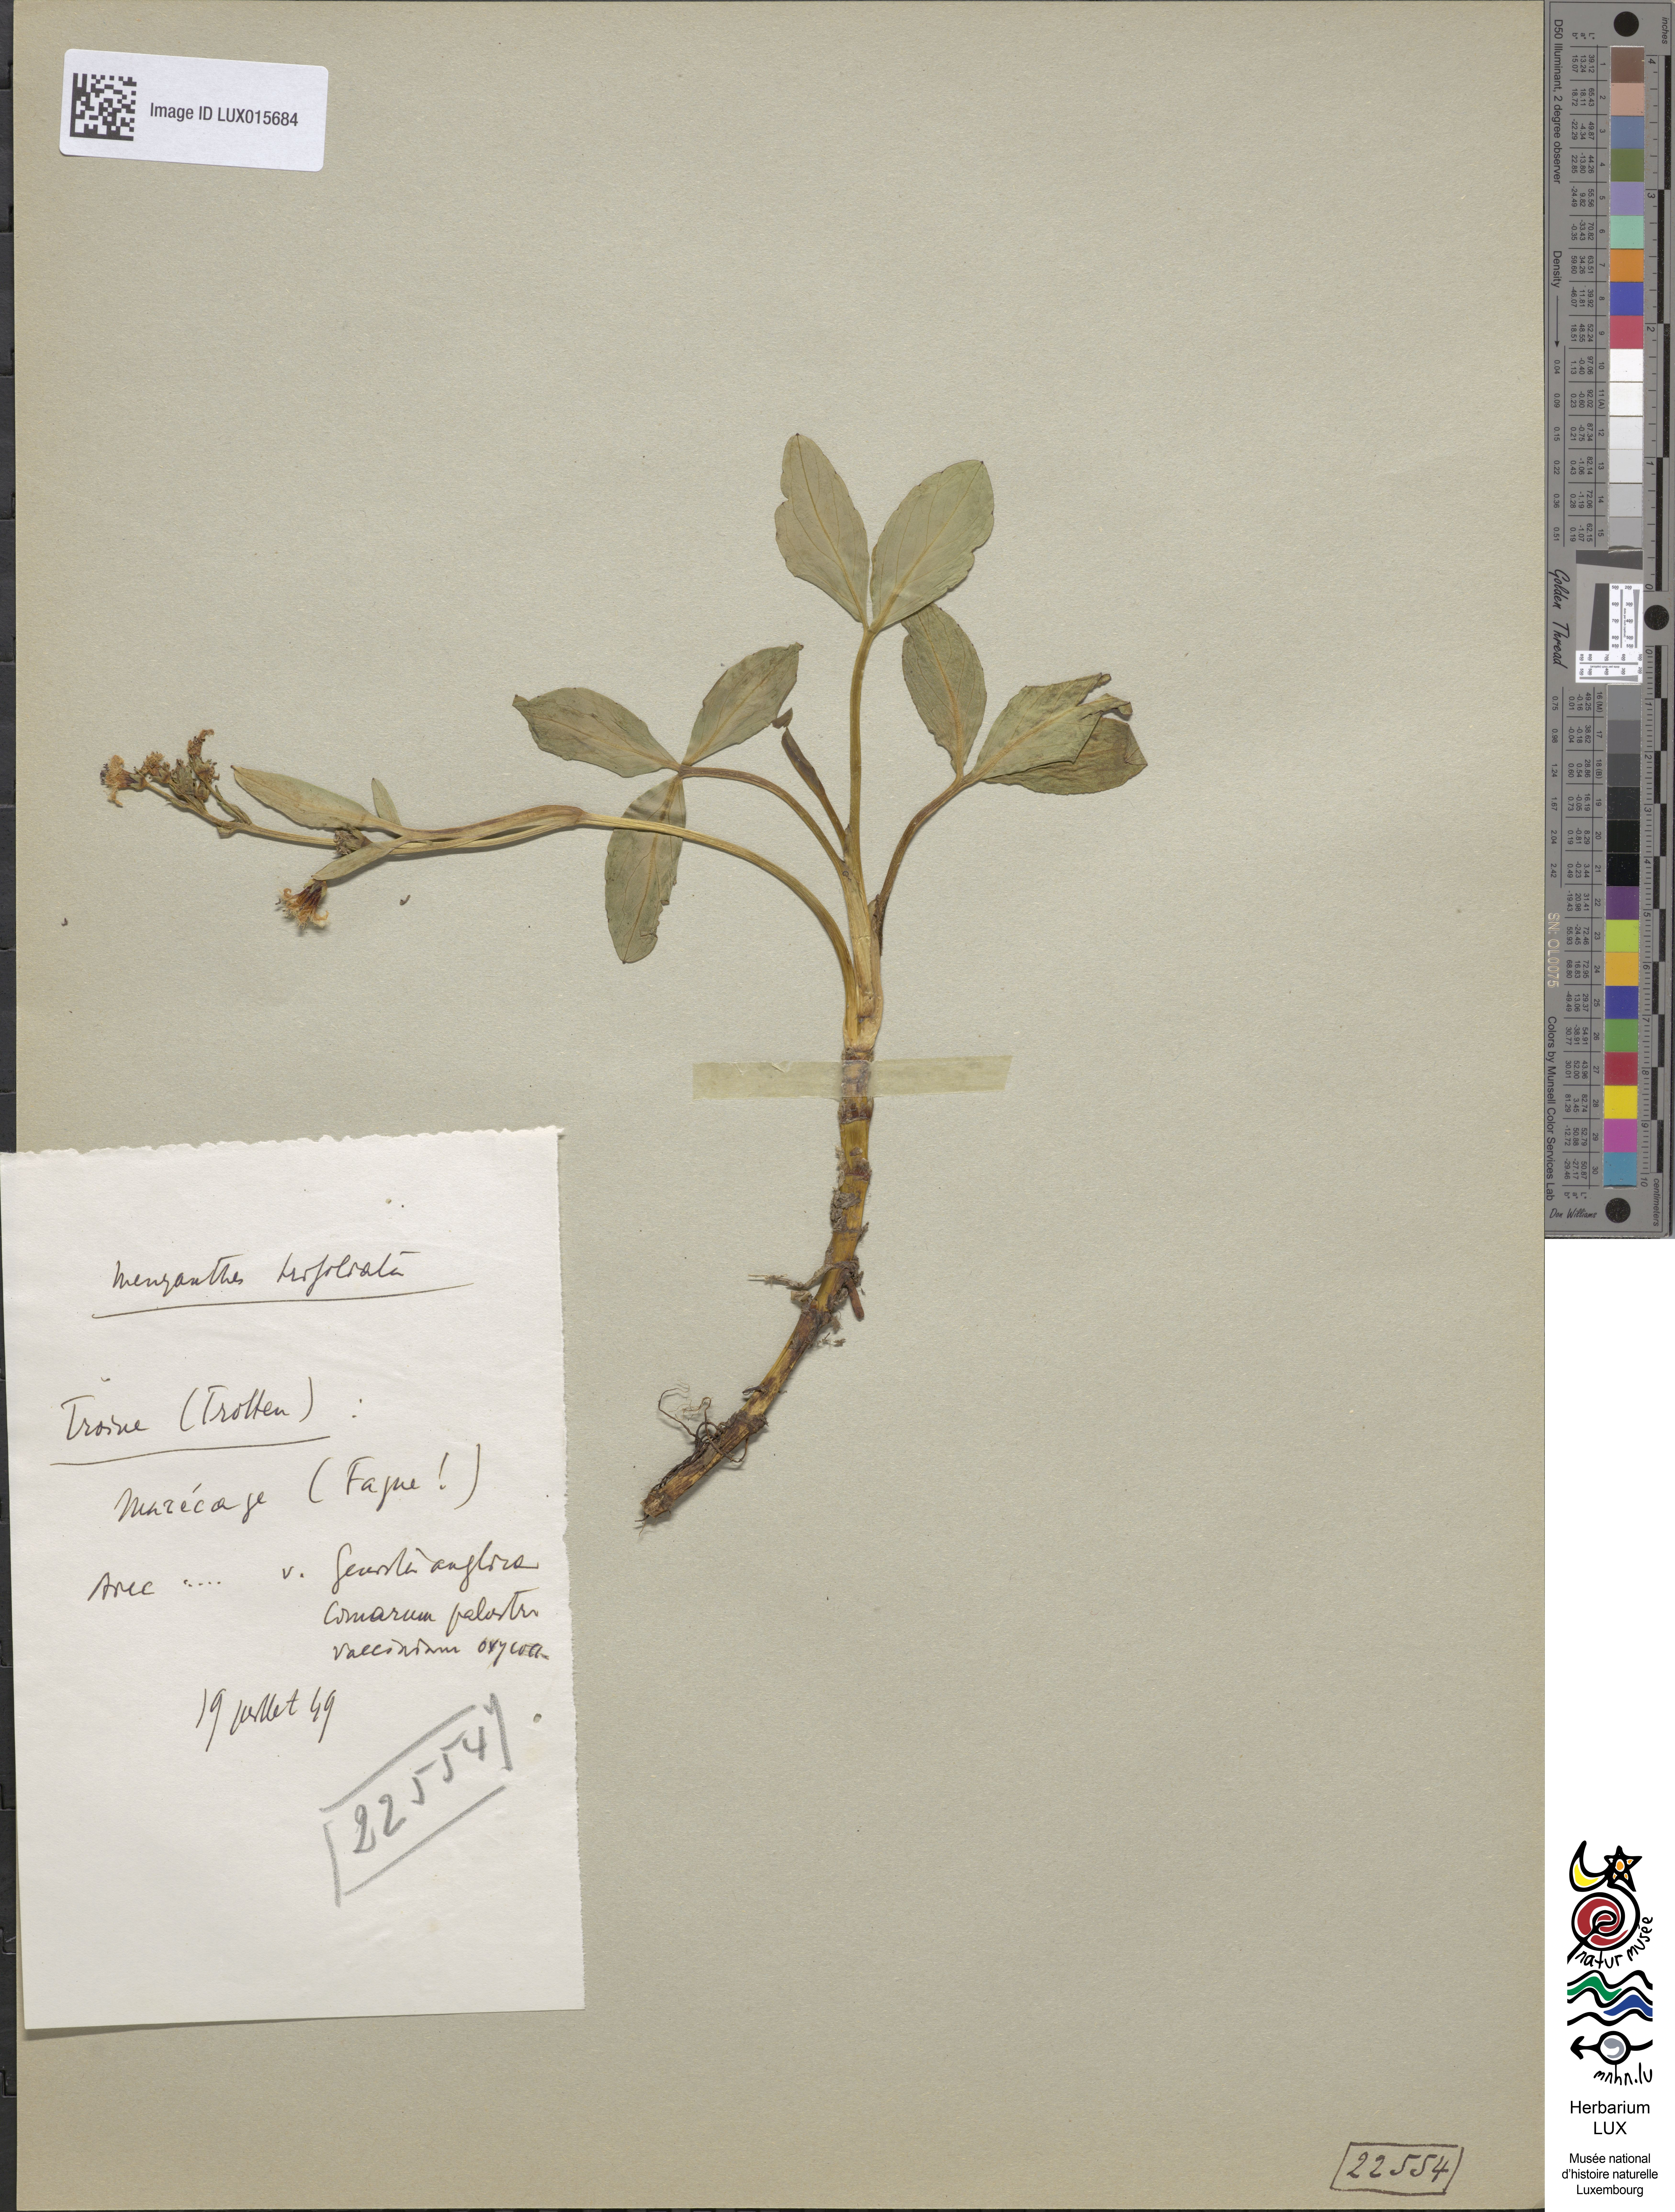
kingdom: Plantae
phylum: Tracheophyta
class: Magnoliopsida
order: Asterales
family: Menyanthaceae
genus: Menyanthes
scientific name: Menyanthes trifoliata
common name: Bogbean
